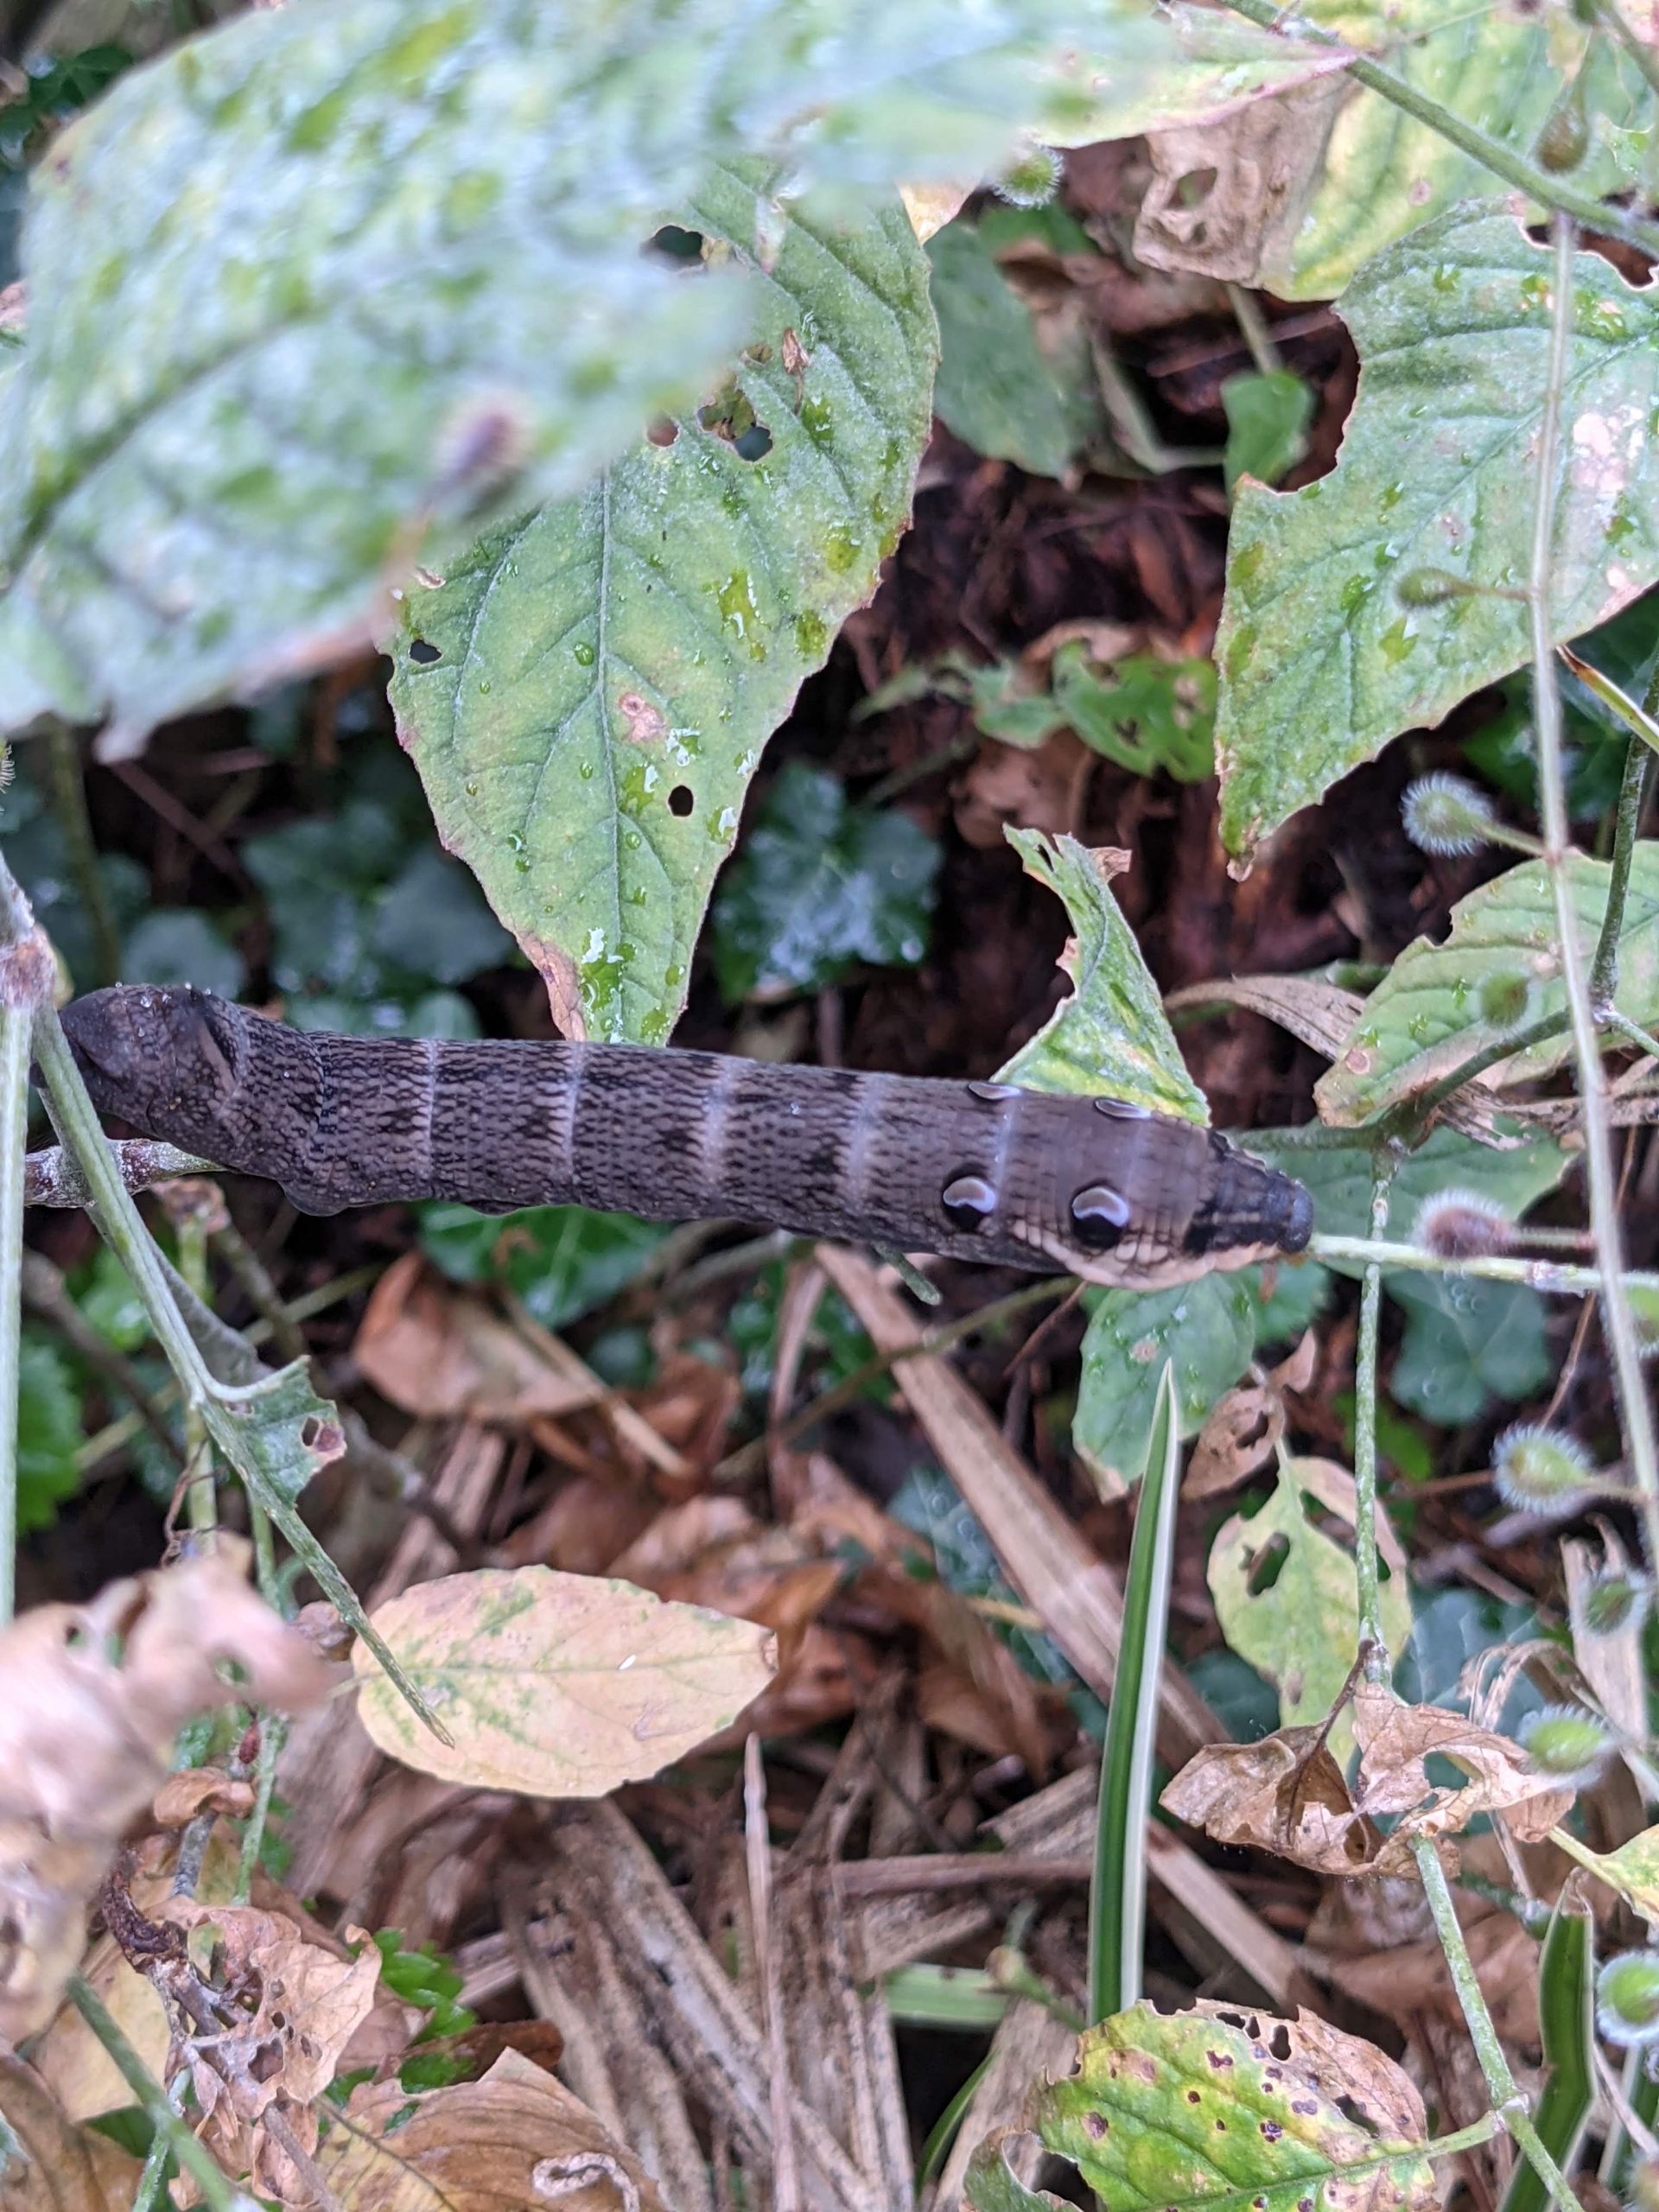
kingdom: Animalia
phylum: Arthropoda
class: Insecta
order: Lepidoptera
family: Sphingidae
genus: Deilephila
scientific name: Deilephila elpenor
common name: Dueurtsværmer
